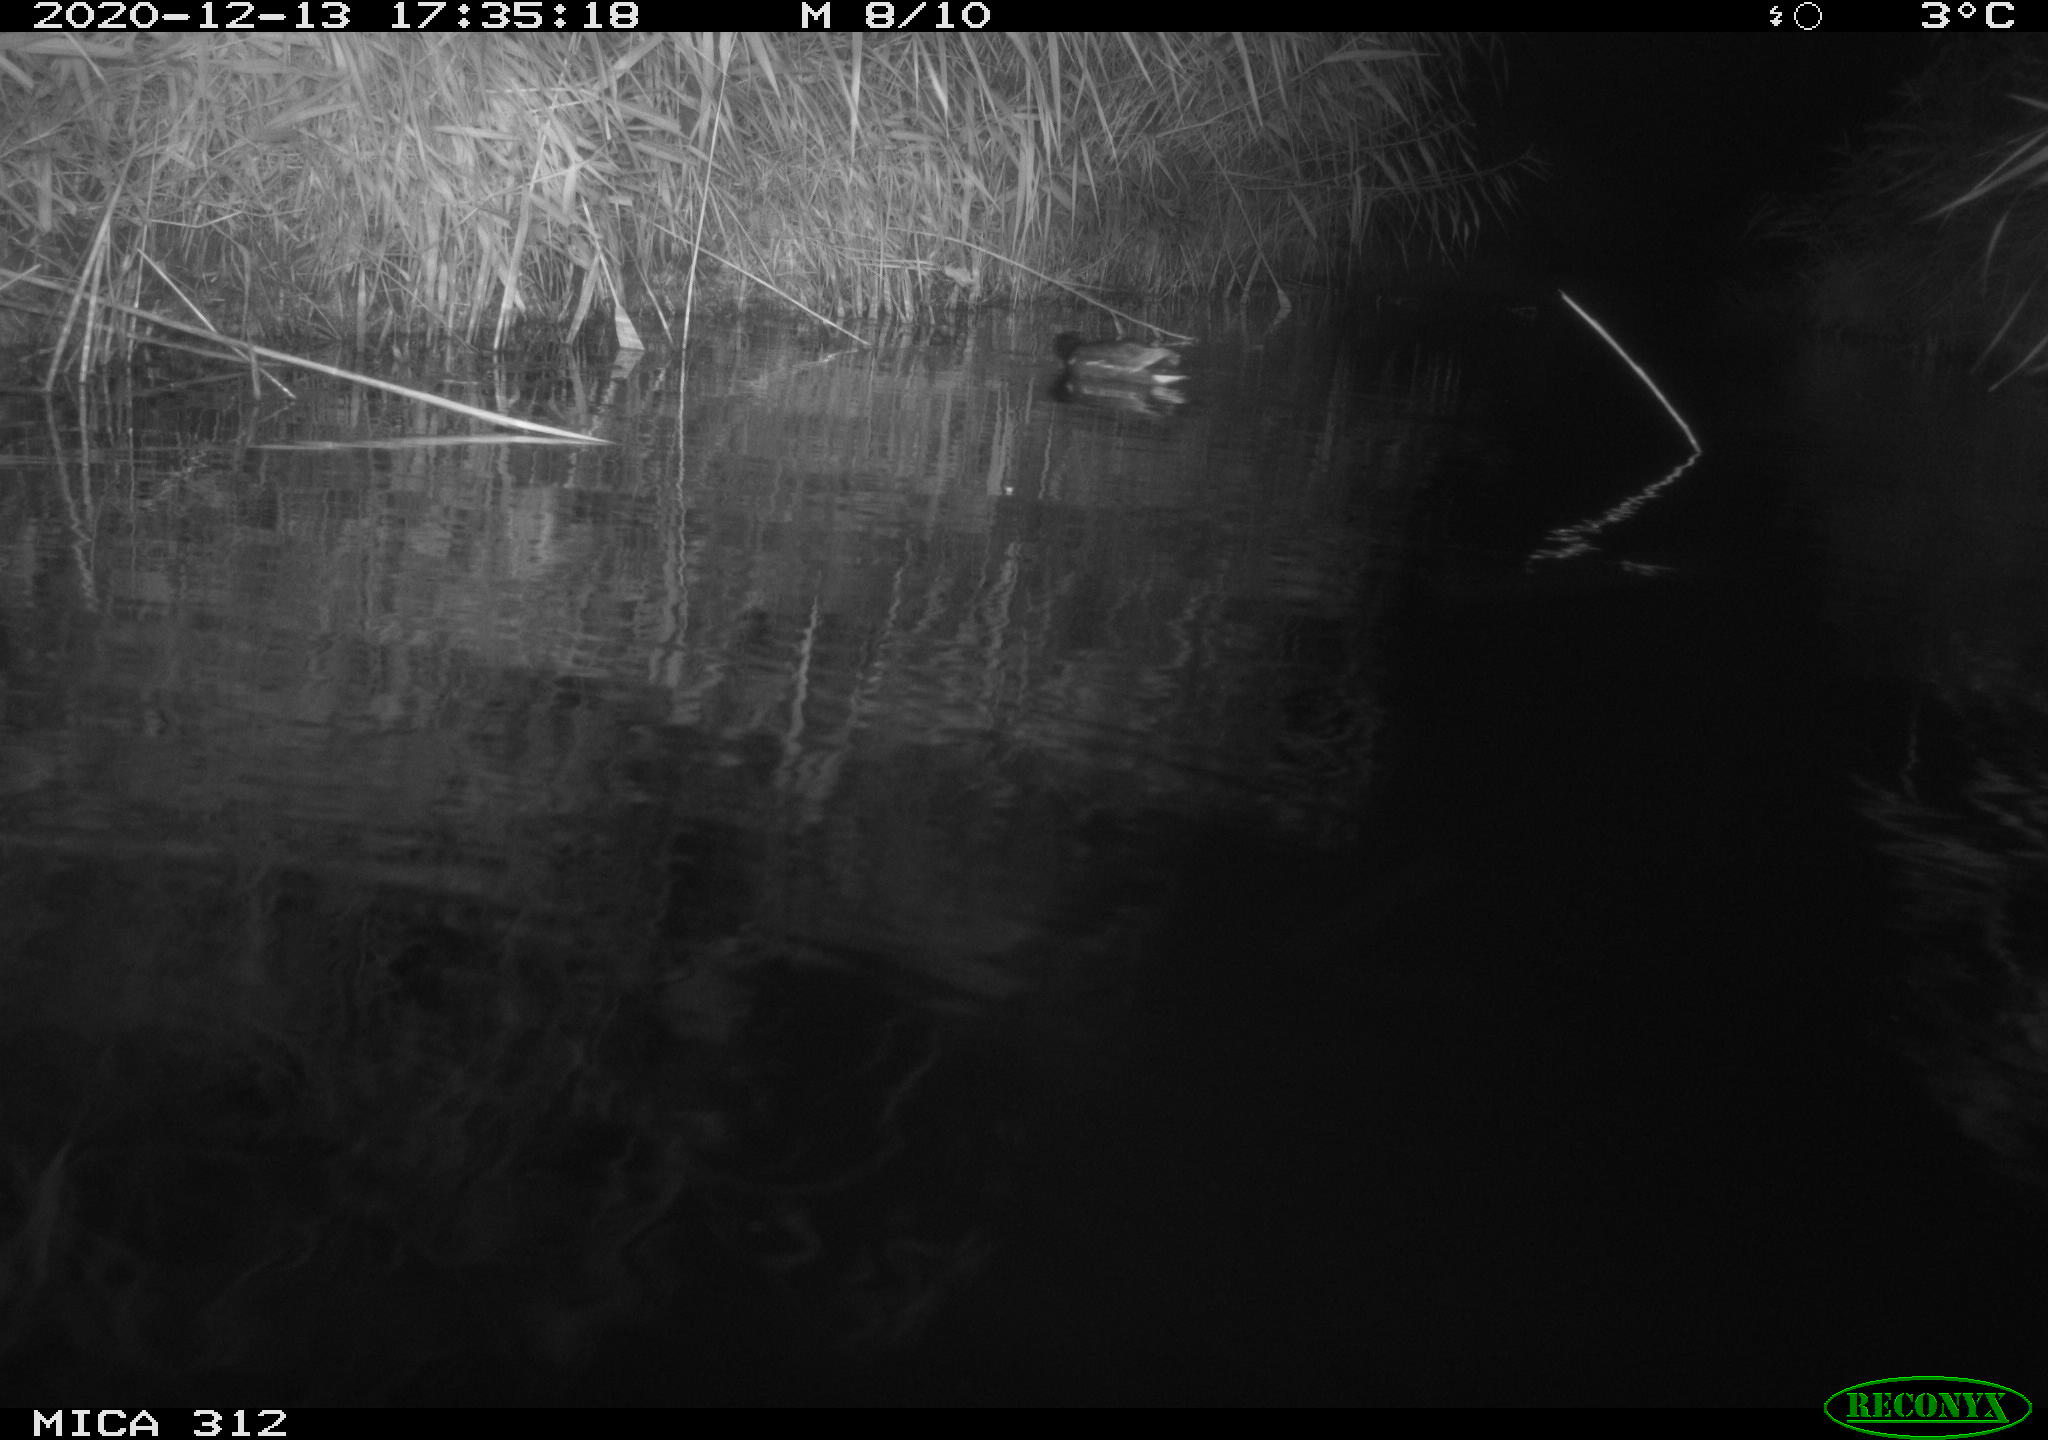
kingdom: Animalia
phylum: Chordata
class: Aves
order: Gruiformes
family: Rallidae
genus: Gallinula
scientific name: Gallinula chloropus
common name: Common moorhen
